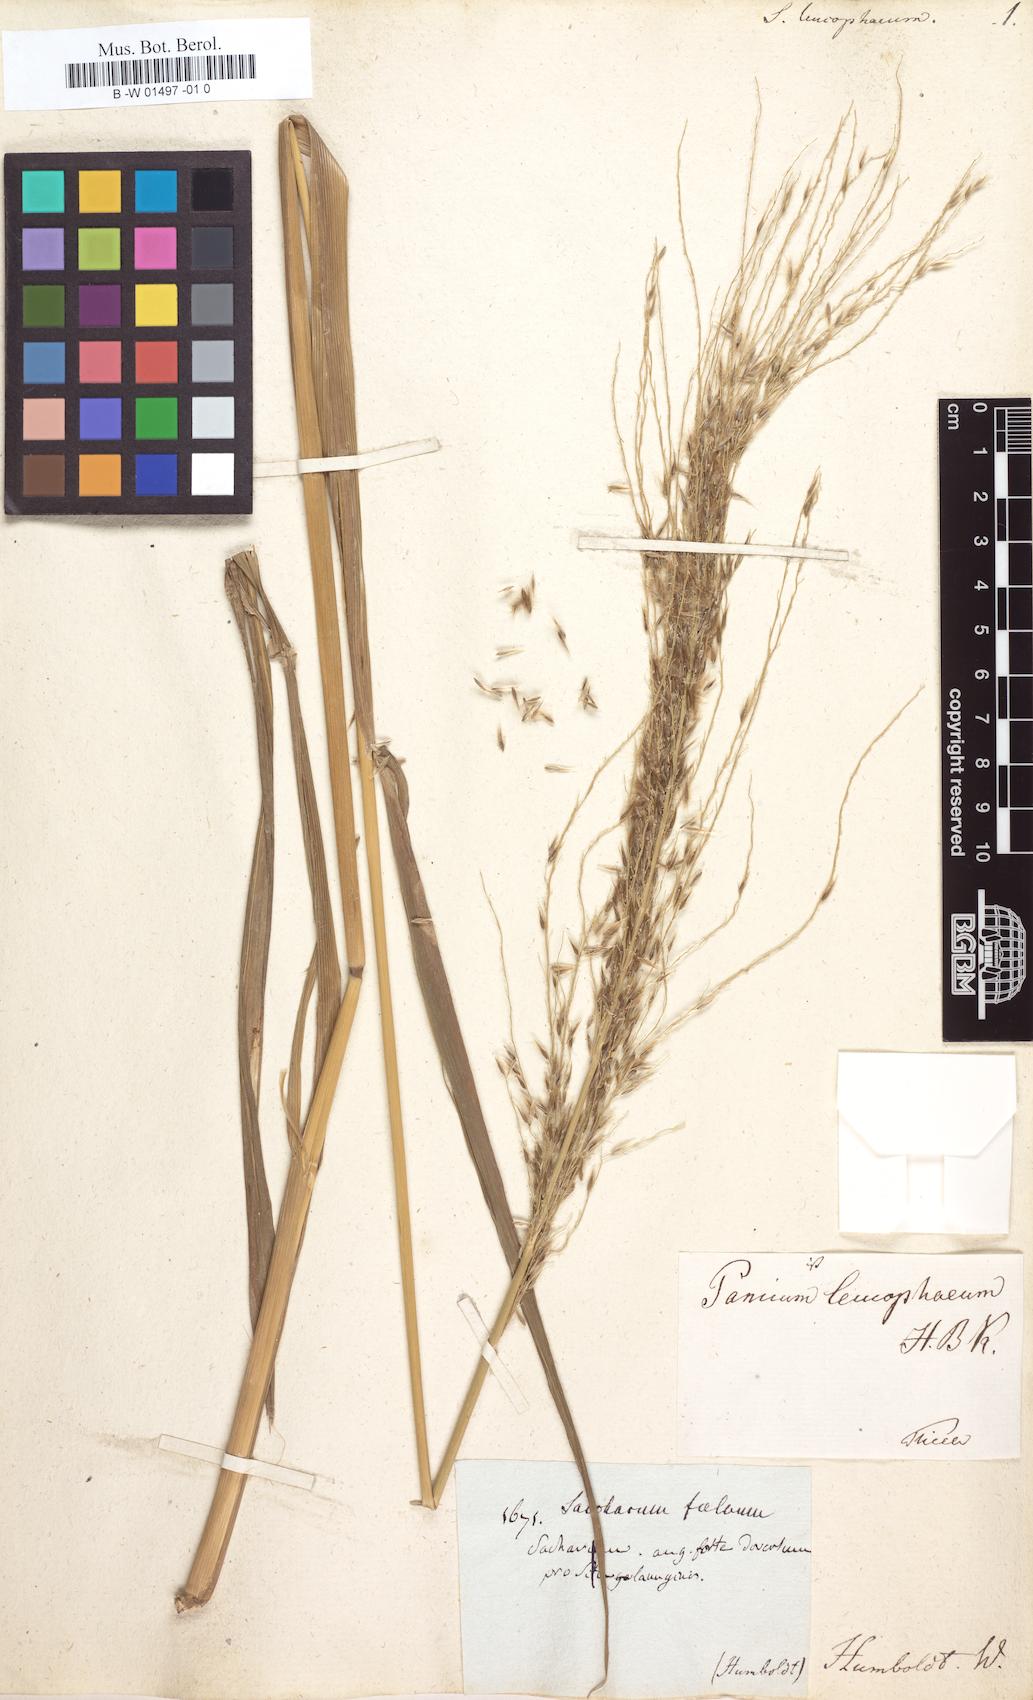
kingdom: Plantae
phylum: Tracheophyta
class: Liliopsida
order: Poales
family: Poaceae
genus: Saccharum
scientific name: Saccharum
